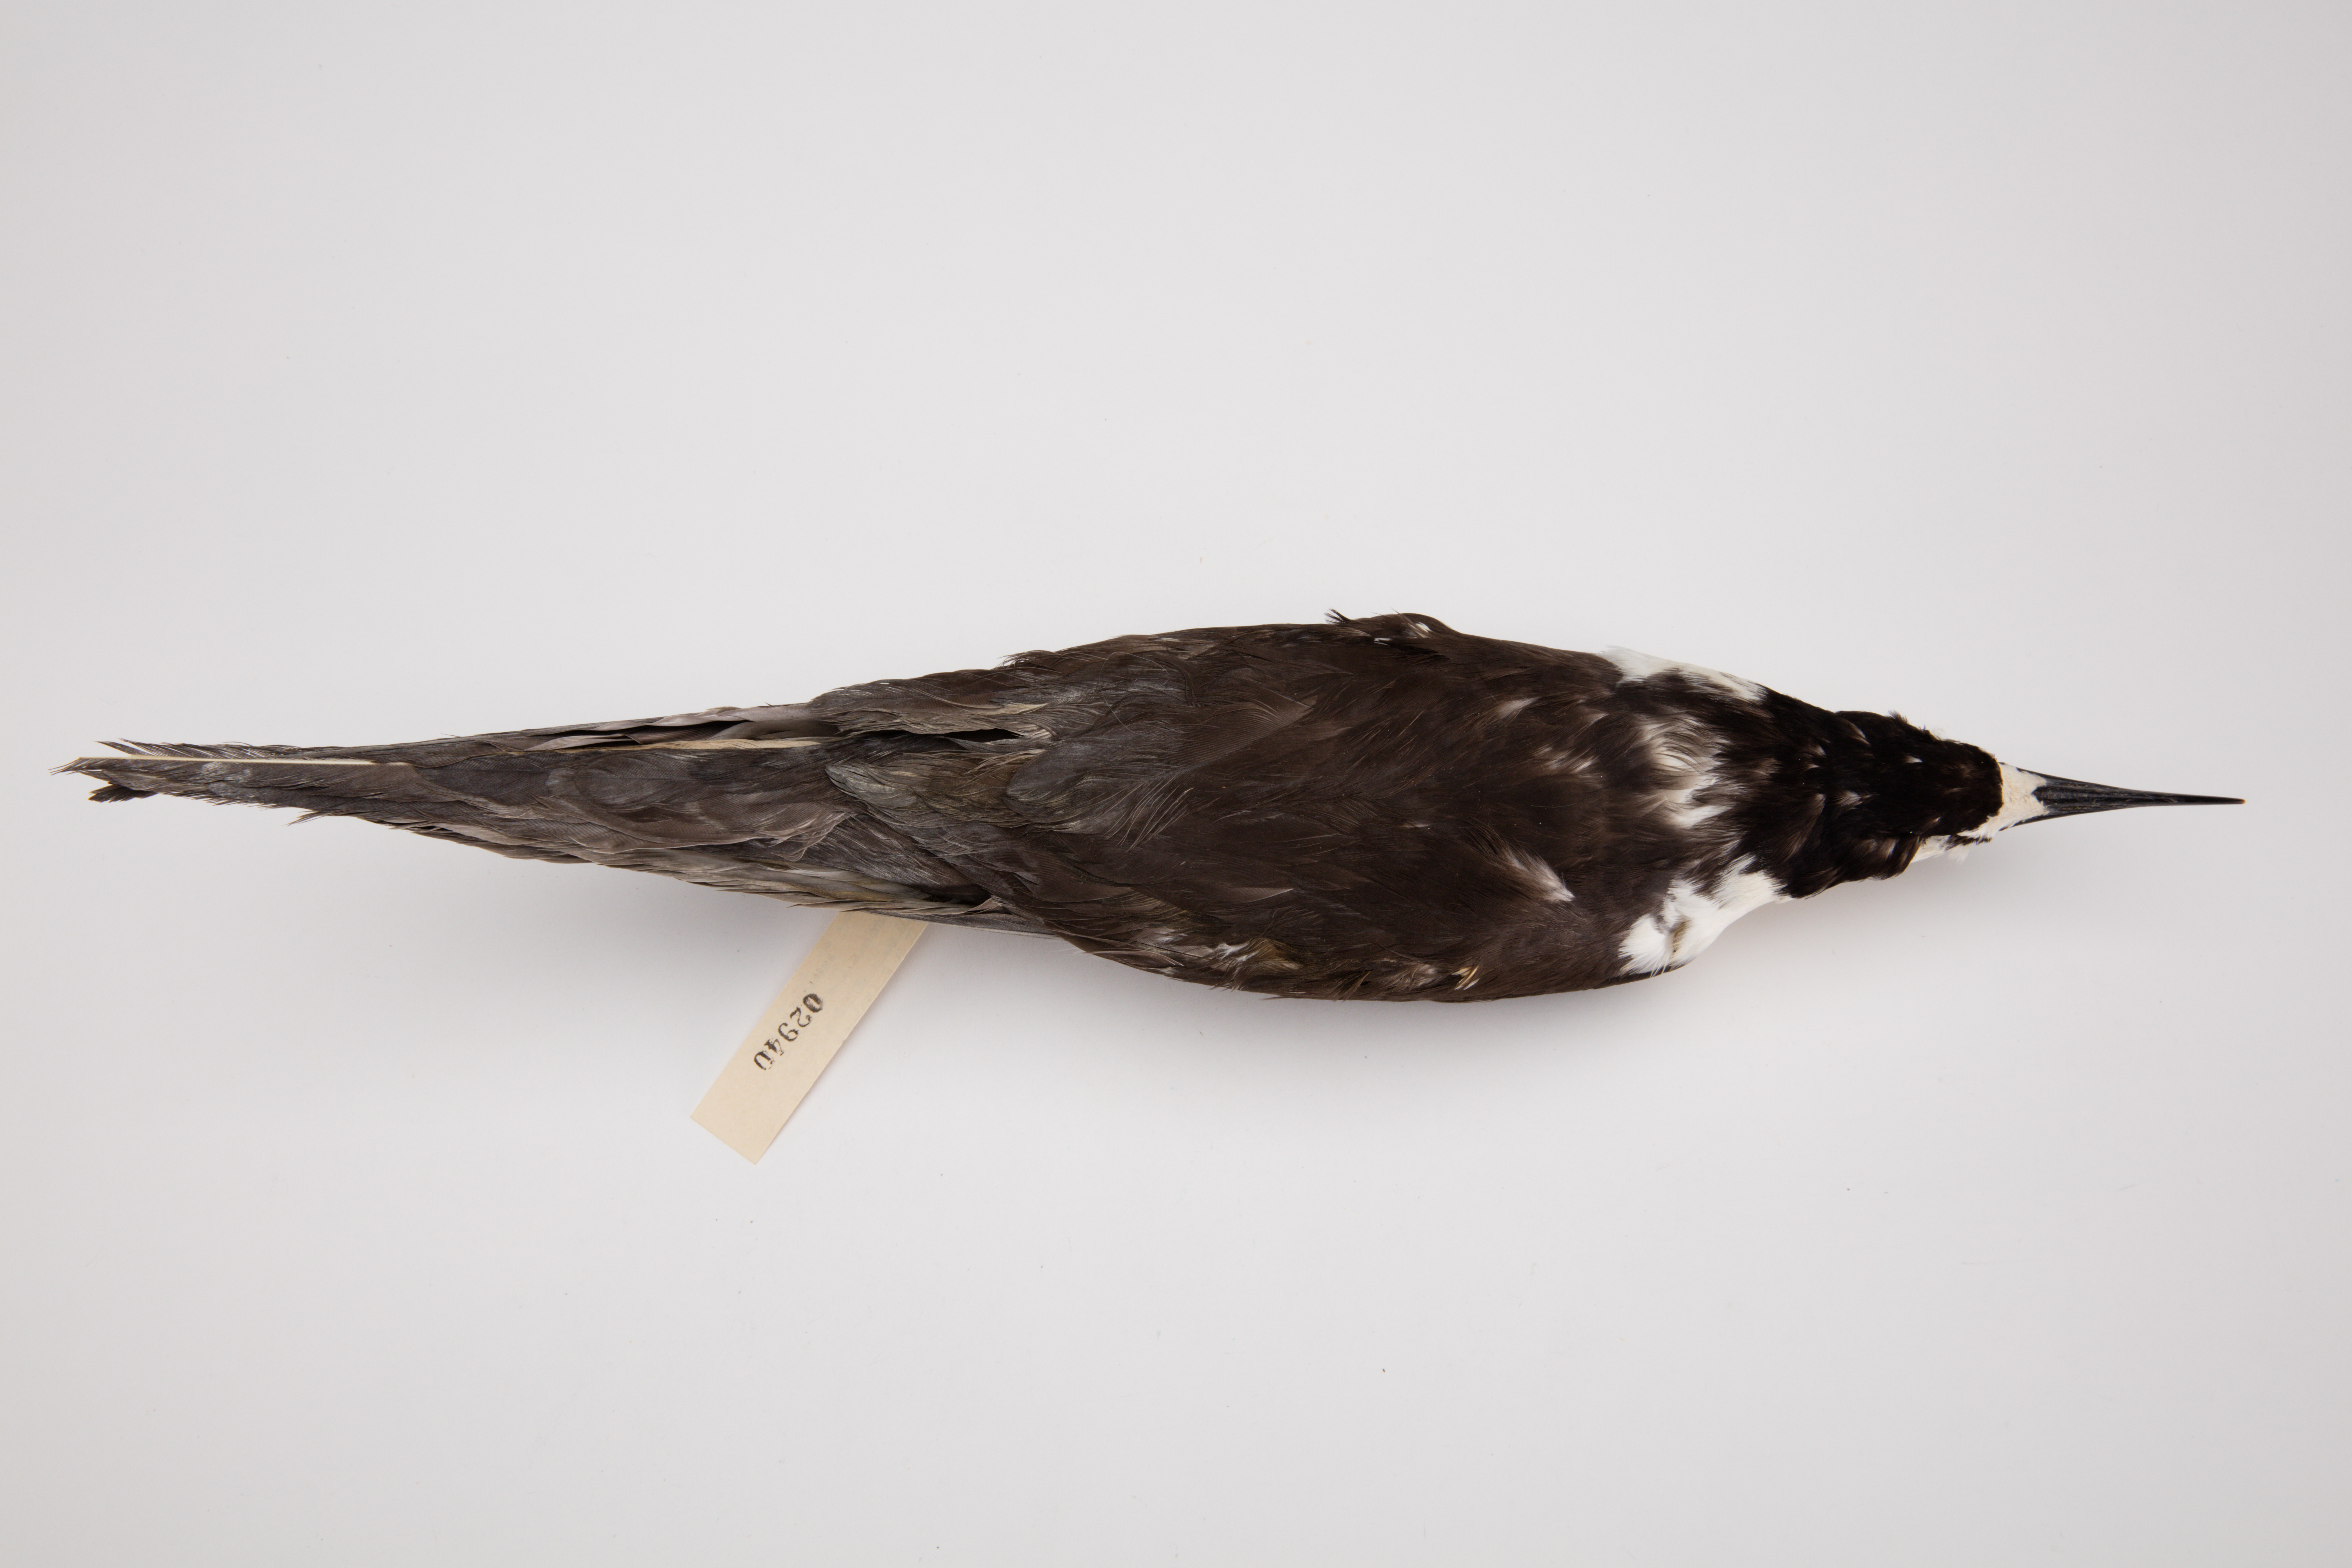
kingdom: Animalia
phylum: Chordata
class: Aves
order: Charadriiformes
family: Laridae
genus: Onychoprion
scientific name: Onychoprion fuscatus
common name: Sooty tern
